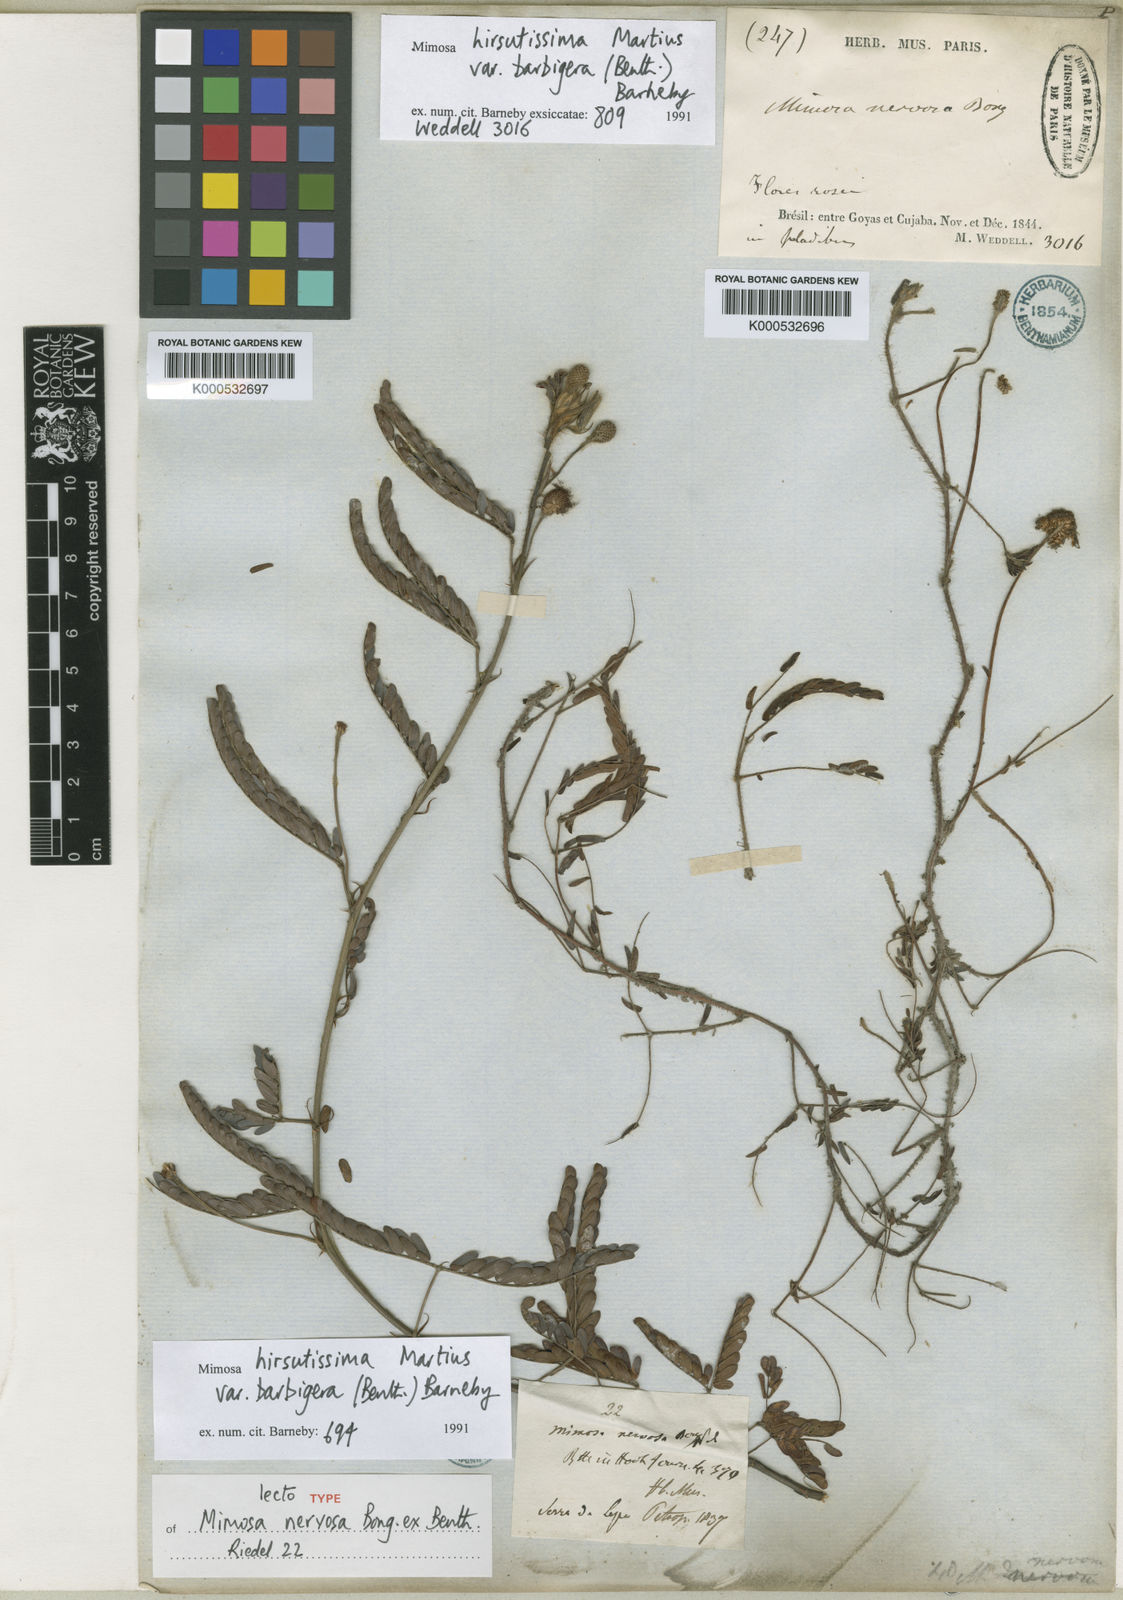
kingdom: Plantae
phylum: Tracheophyta
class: Magnoliopsida
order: Fabales
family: Fabaceae
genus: Mimosa
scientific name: Mimosa hirsutissima
